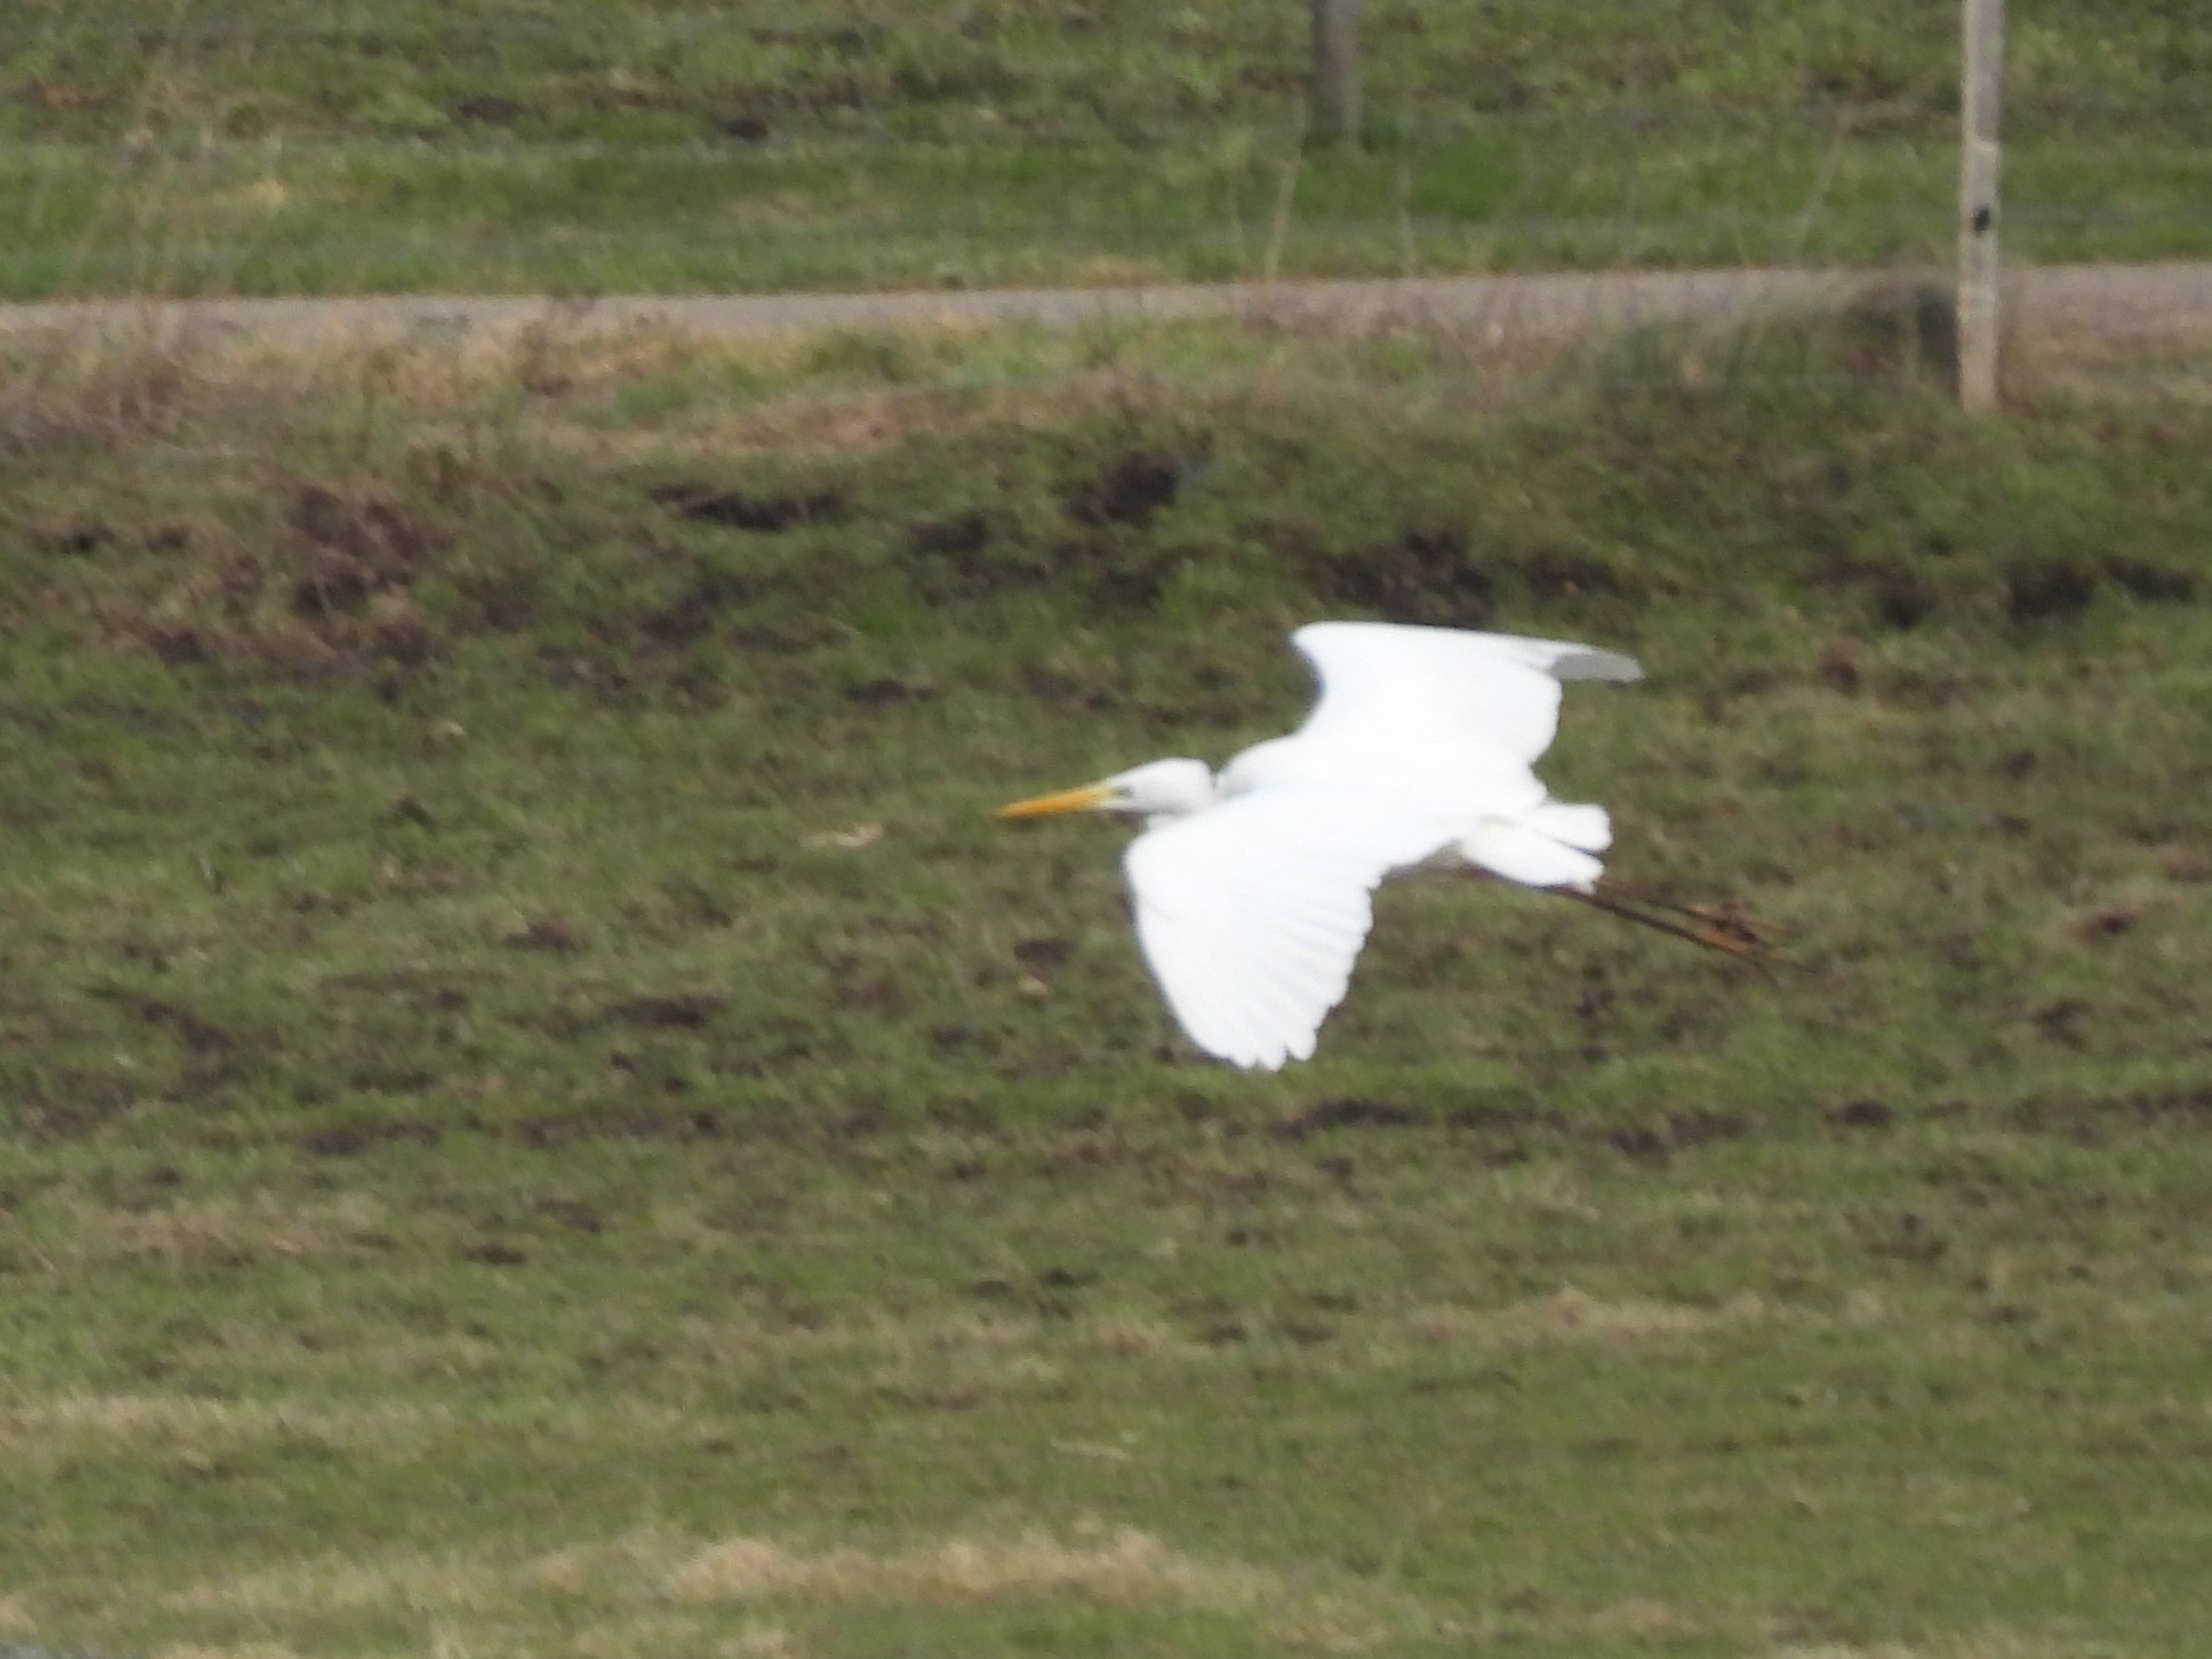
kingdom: Animalia
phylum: Chordata
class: Aves
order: Pelecaniformes
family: Ardeidae
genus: Ardea
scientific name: Ardea alba
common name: Sølvhejre
